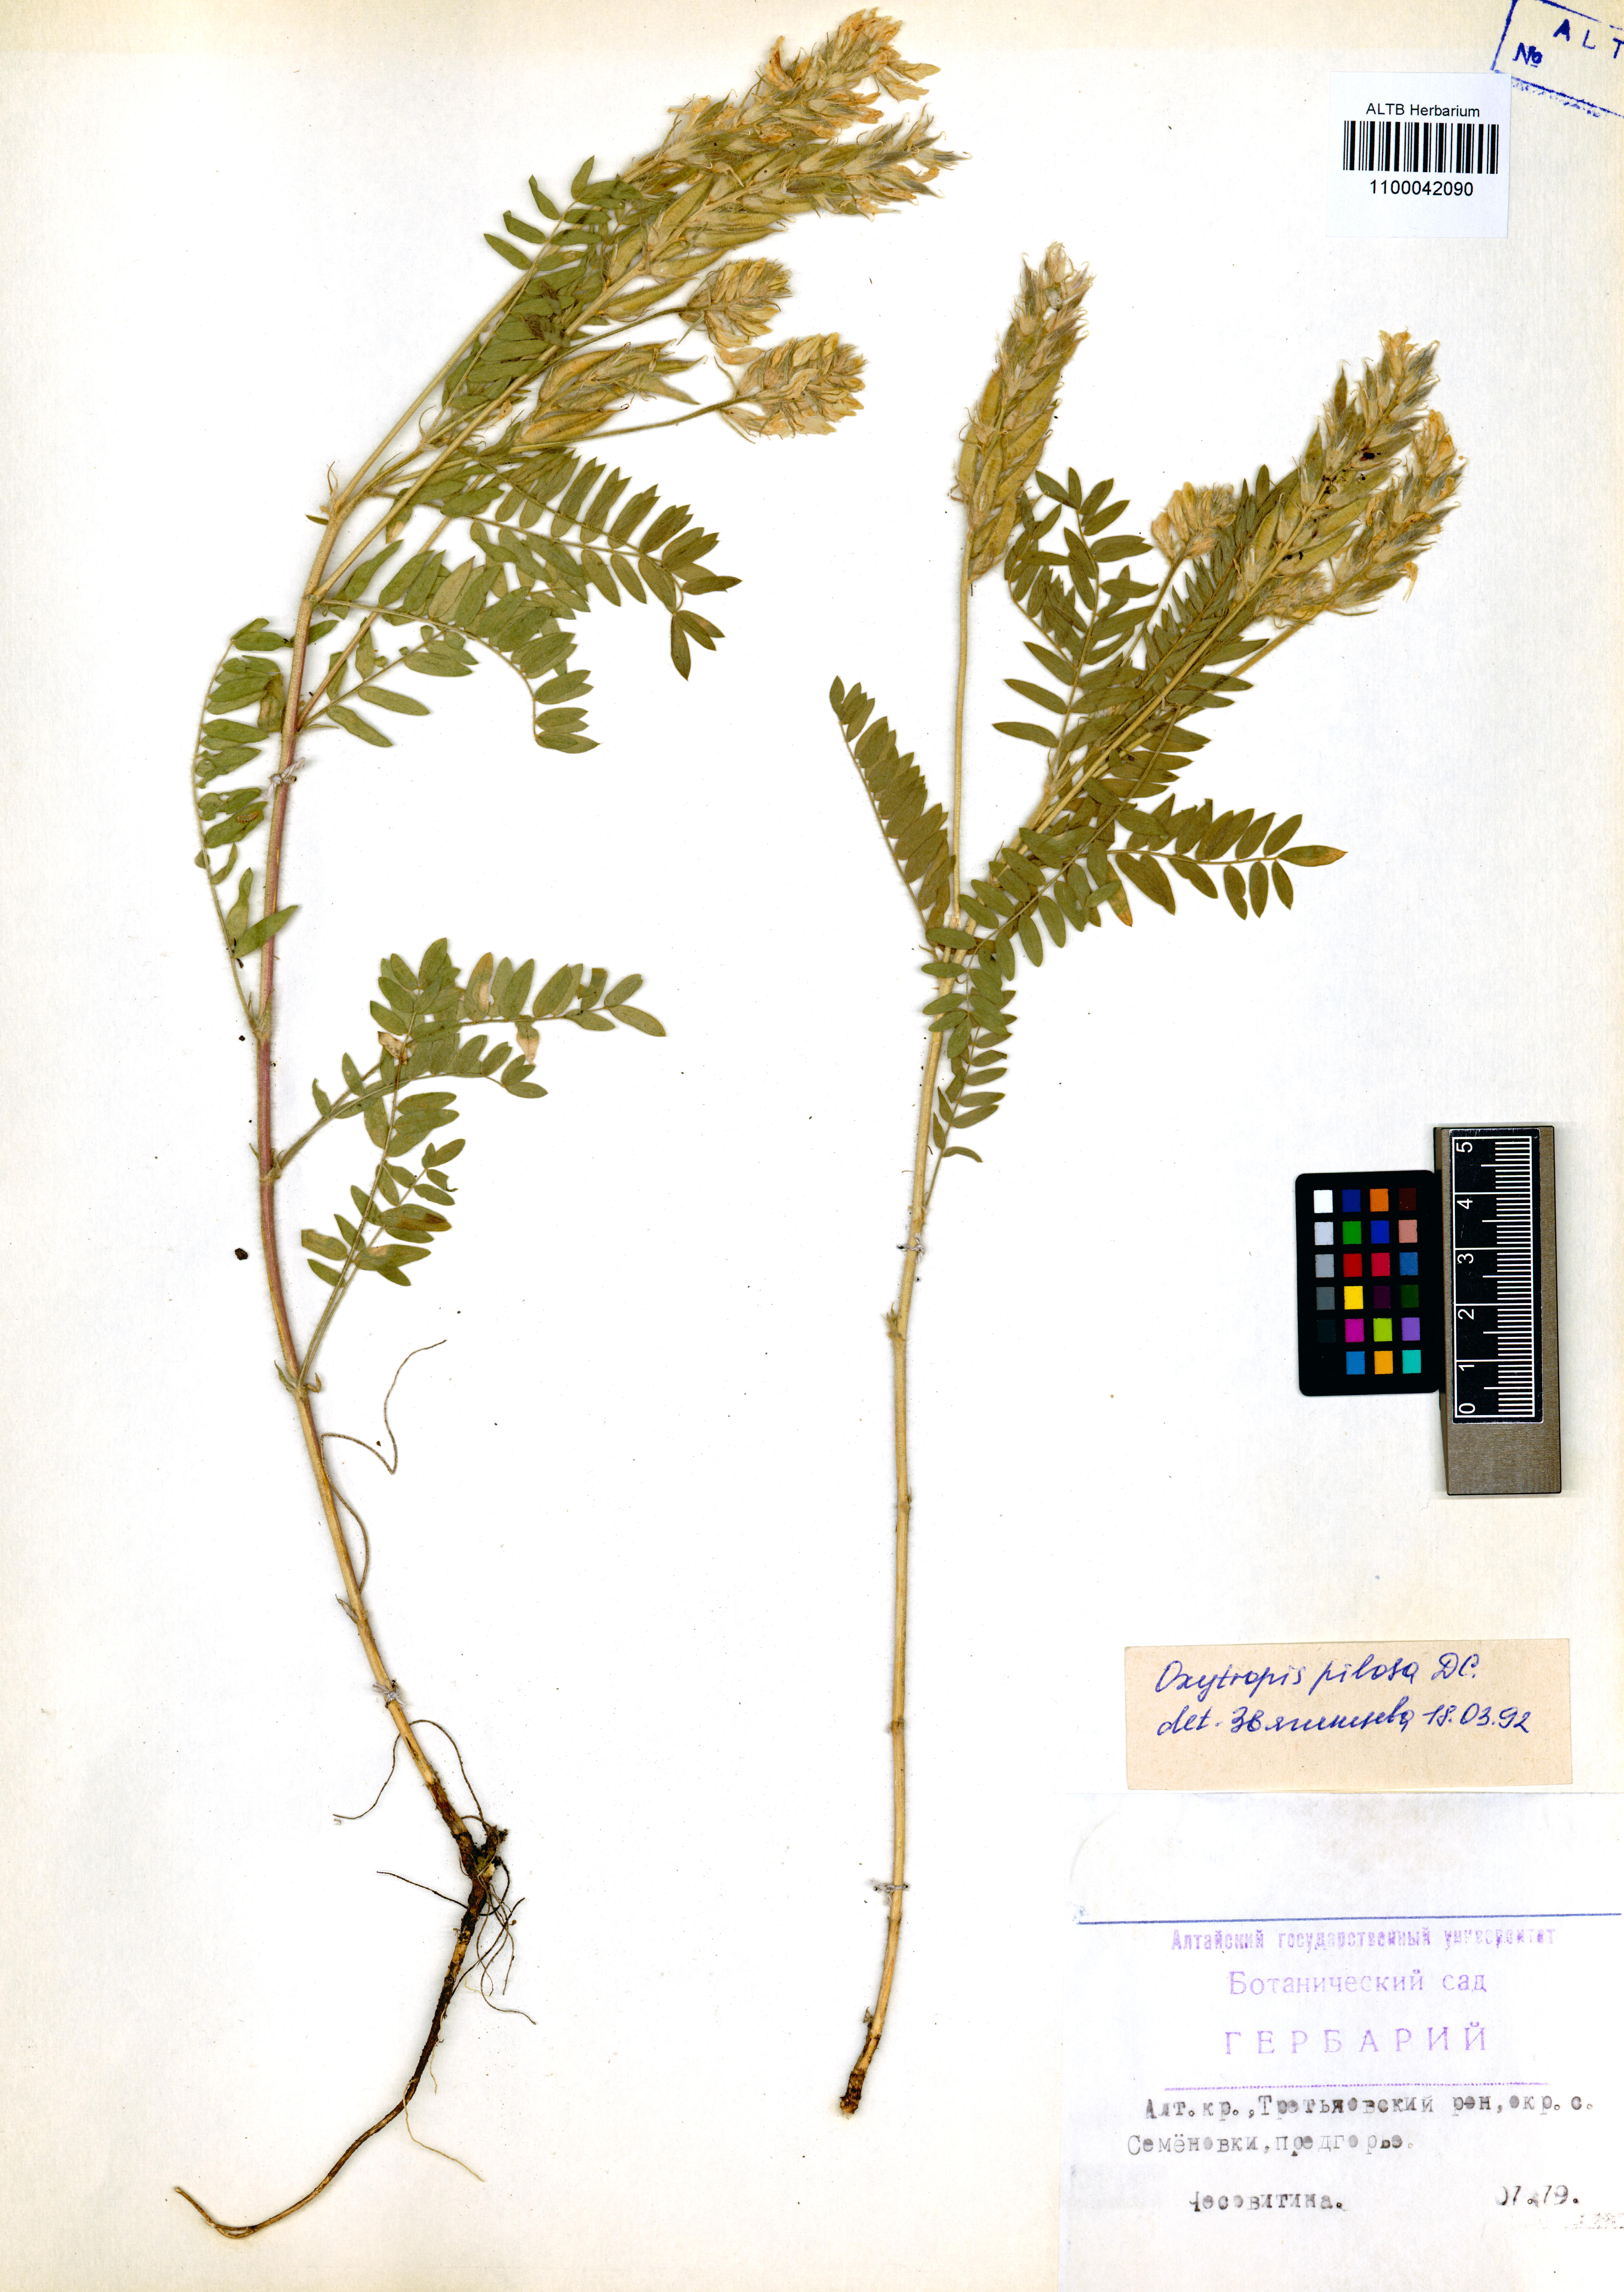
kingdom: Plantae
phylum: Tracheophyta
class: Magnoliopsida
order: Fabales
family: Fabaceae
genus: Oxytropis
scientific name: Oxytropis pilosa
